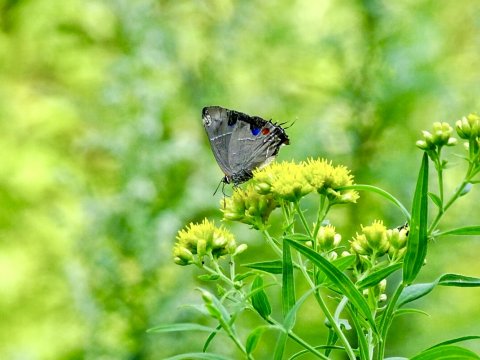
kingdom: Animalia
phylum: Arthropoda
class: Insecta
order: Lepidoptera
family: Lycaenidae
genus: Parrhasius
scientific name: Parrhasius m-album
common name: White-m Hairstreak
